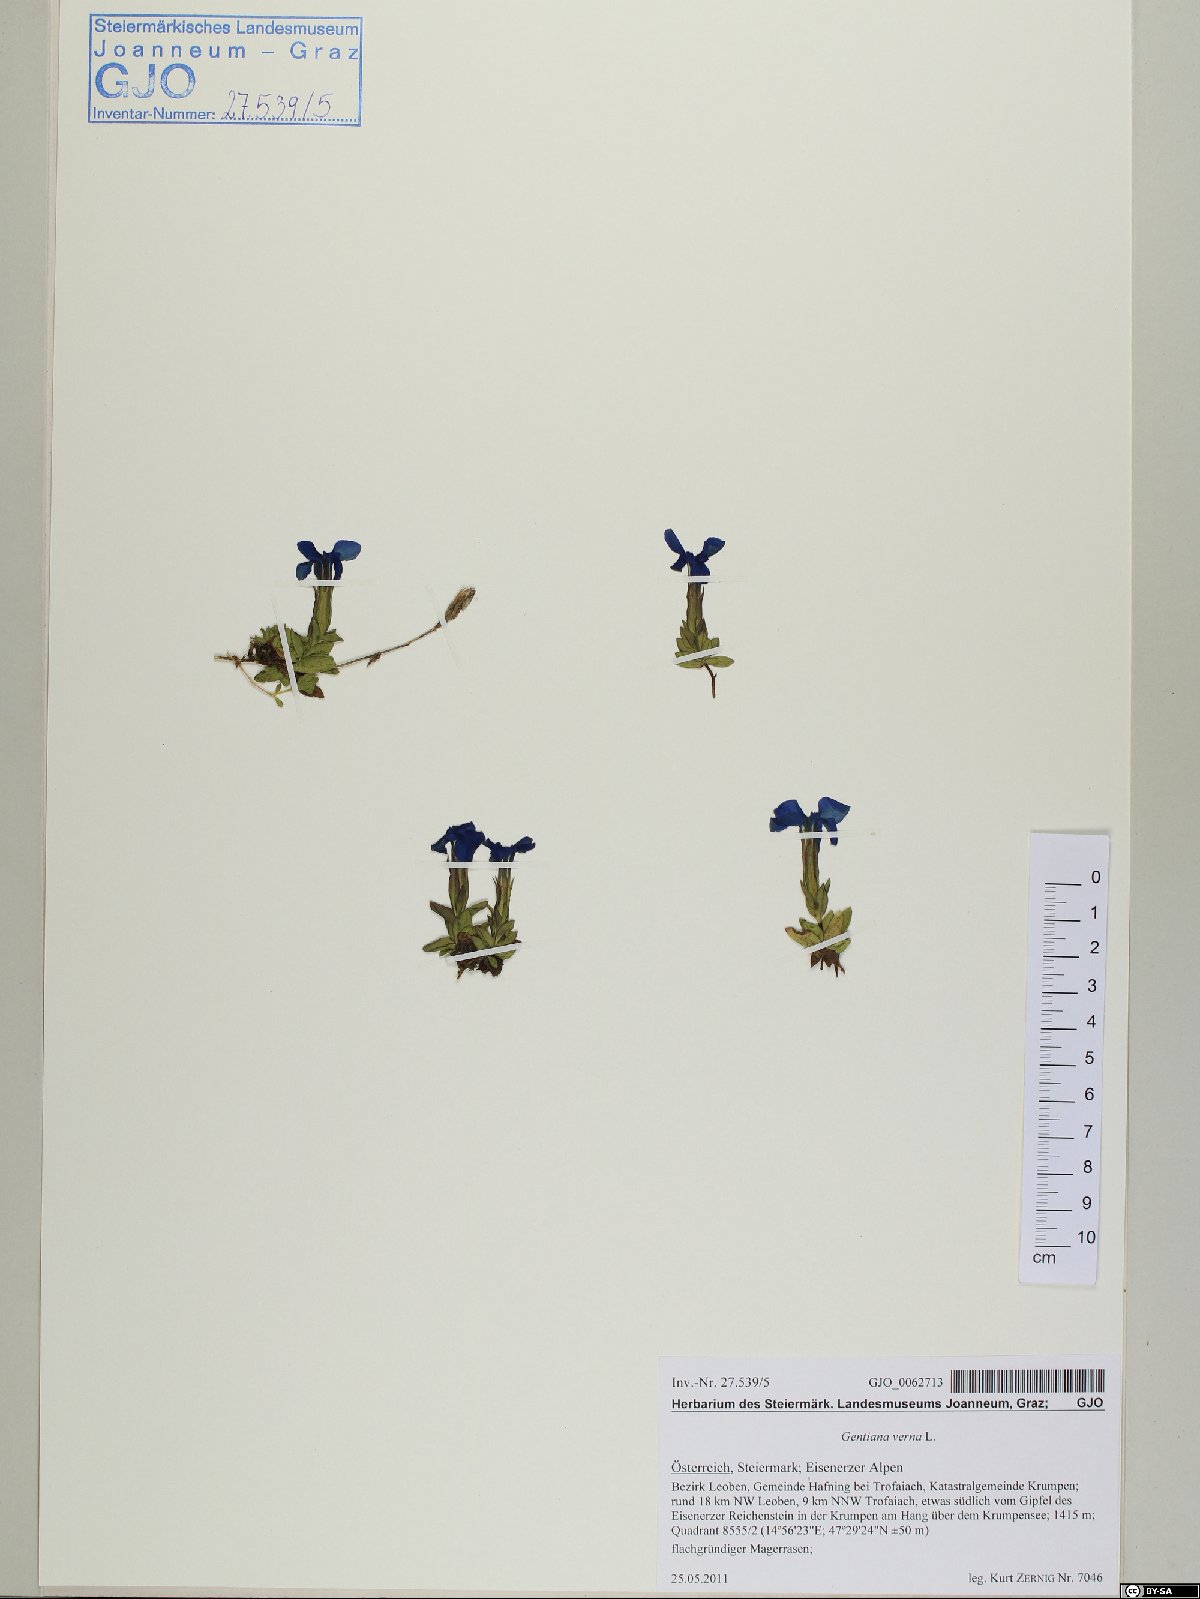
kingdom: Plantae
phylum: Tracheophyta
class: Magnoliopsida
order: Gentianales
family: Gentianaceae
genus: Gentiana
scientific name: Gentiana verna
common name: Spring gentian
